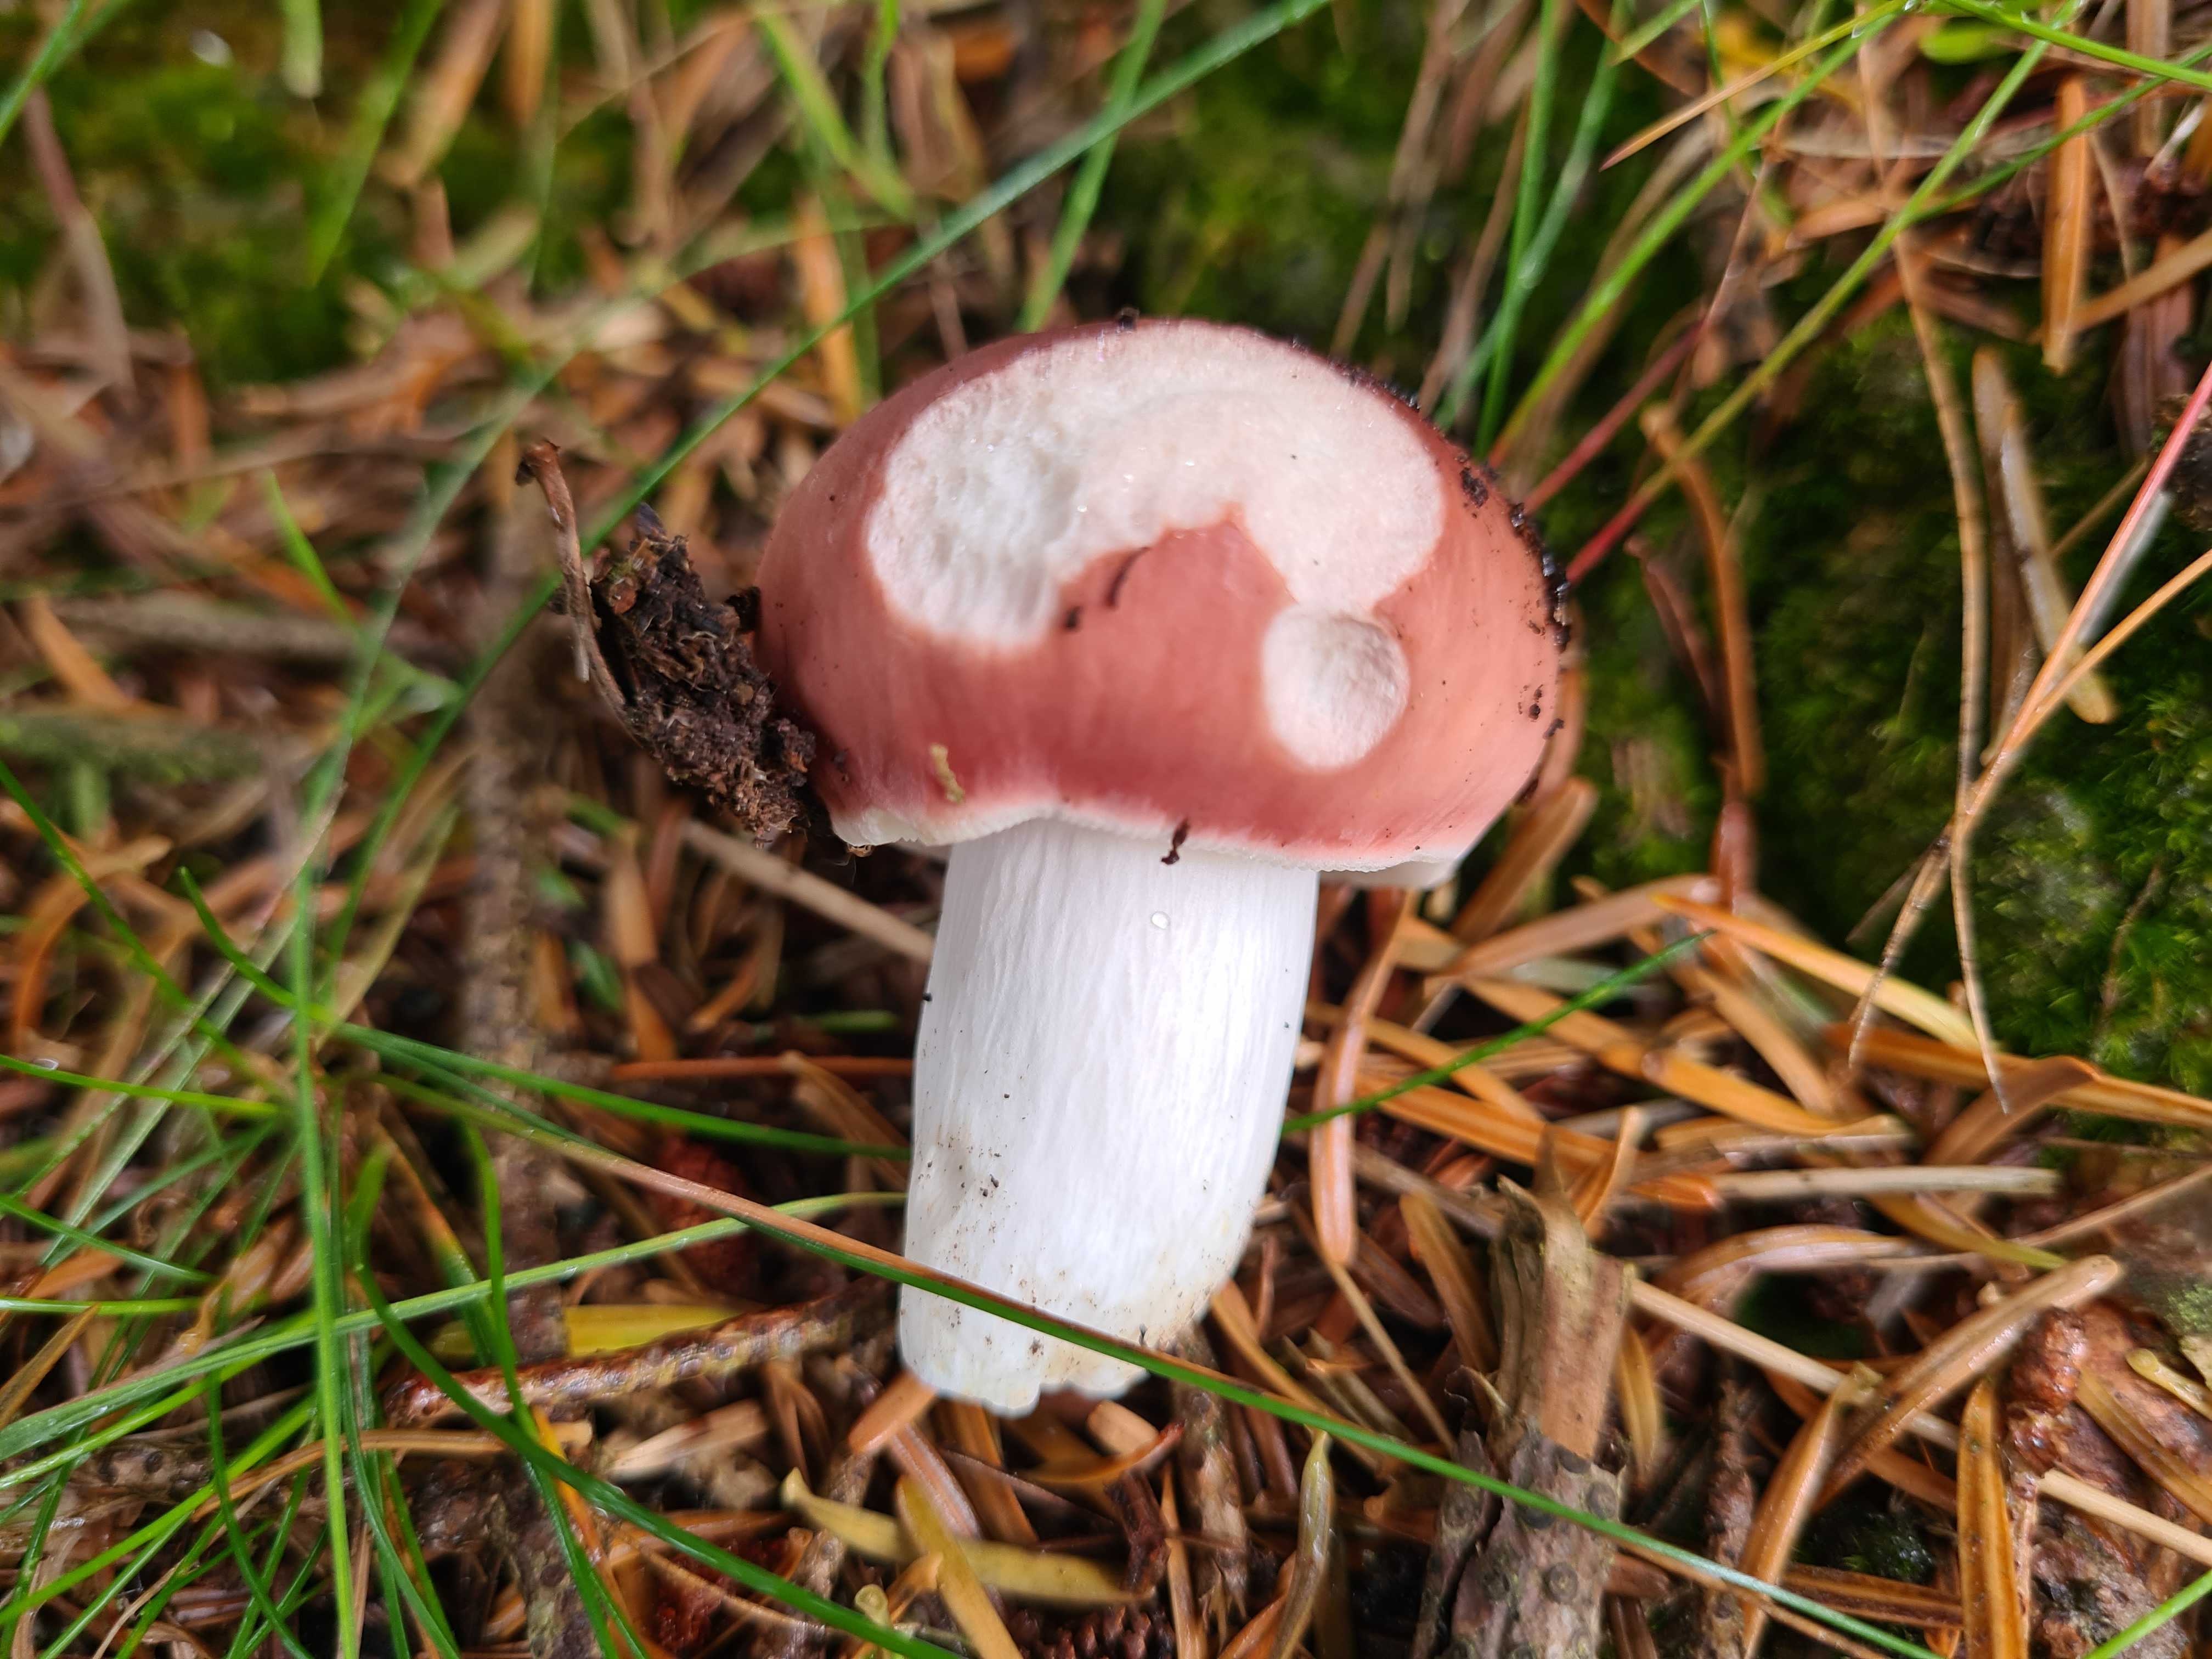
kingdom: Fungi
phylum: Basidiomycota
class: Agaricomycetes
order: Russulales
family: Russulaceae
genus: Russula
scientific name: Russula vesca
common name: spiselig skørhat
